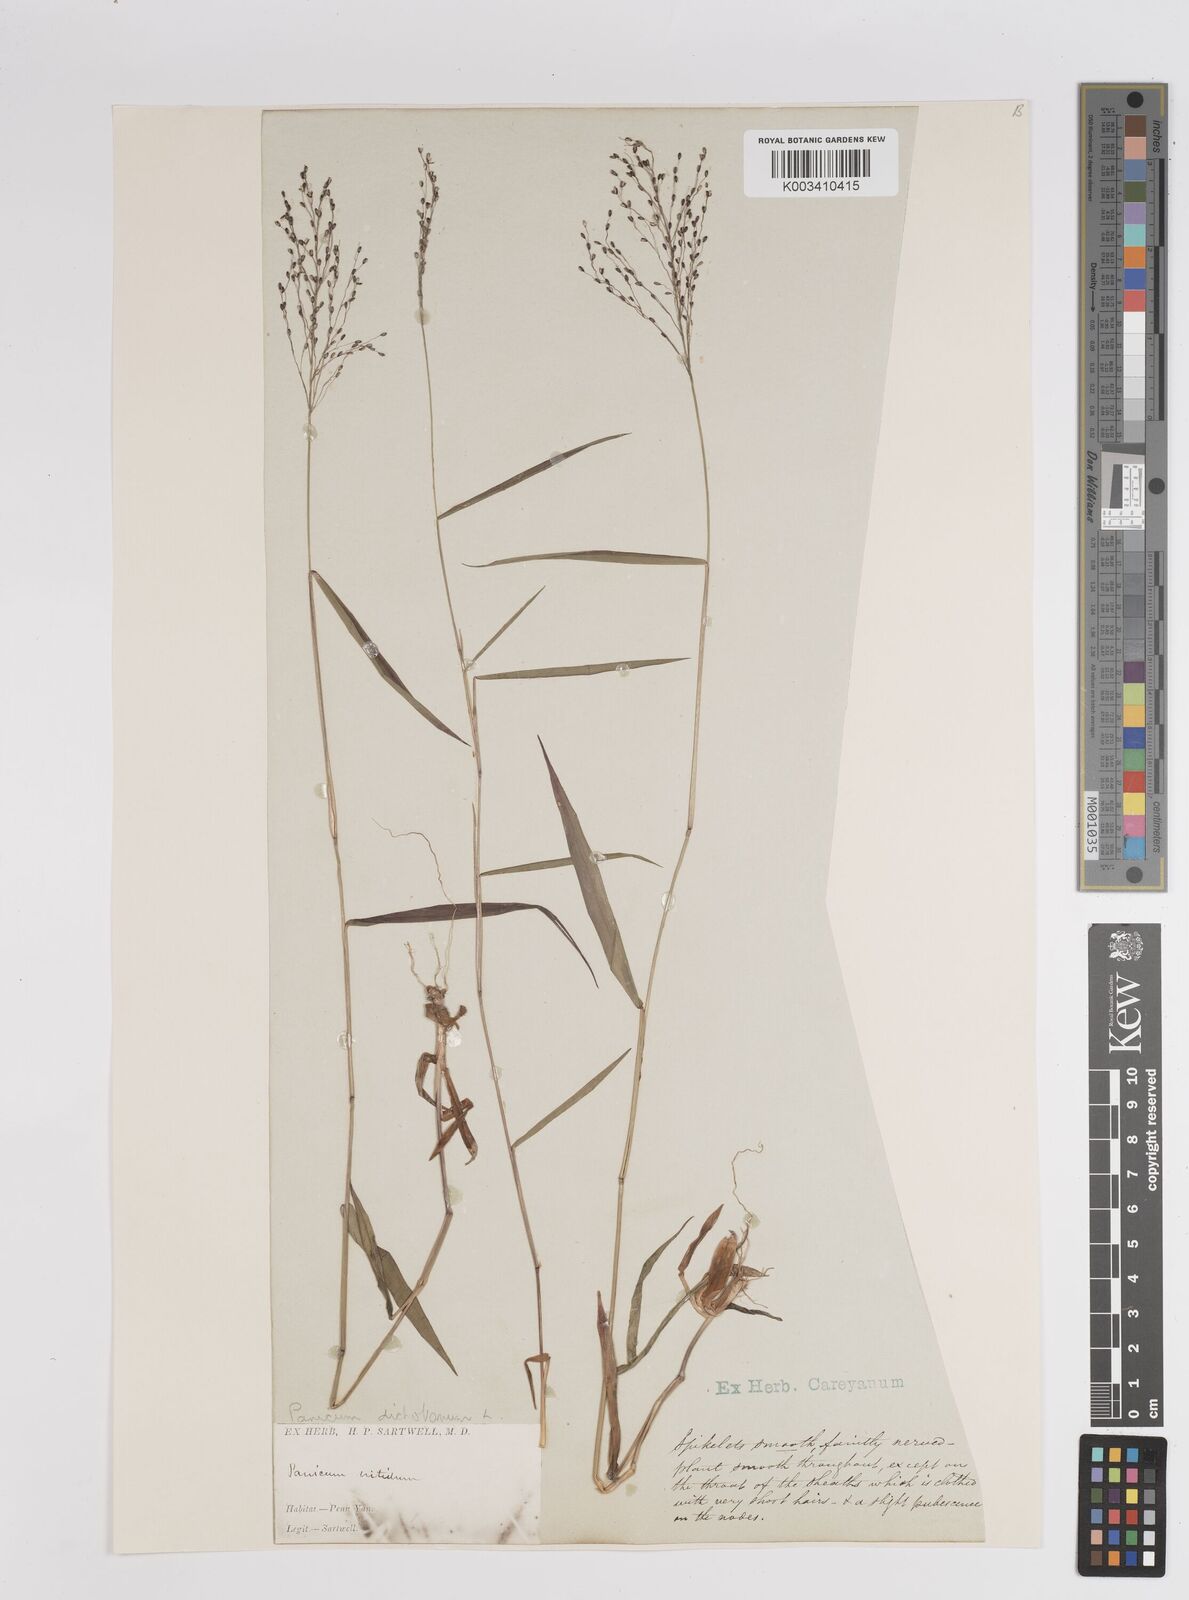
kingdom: Plantae
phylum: Tracheophyta
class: Liliopsida
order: Poales
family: Poaceae
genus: Dichanthelium
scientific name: Dichanthelium dichotomum
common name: Cypress panicgrass
